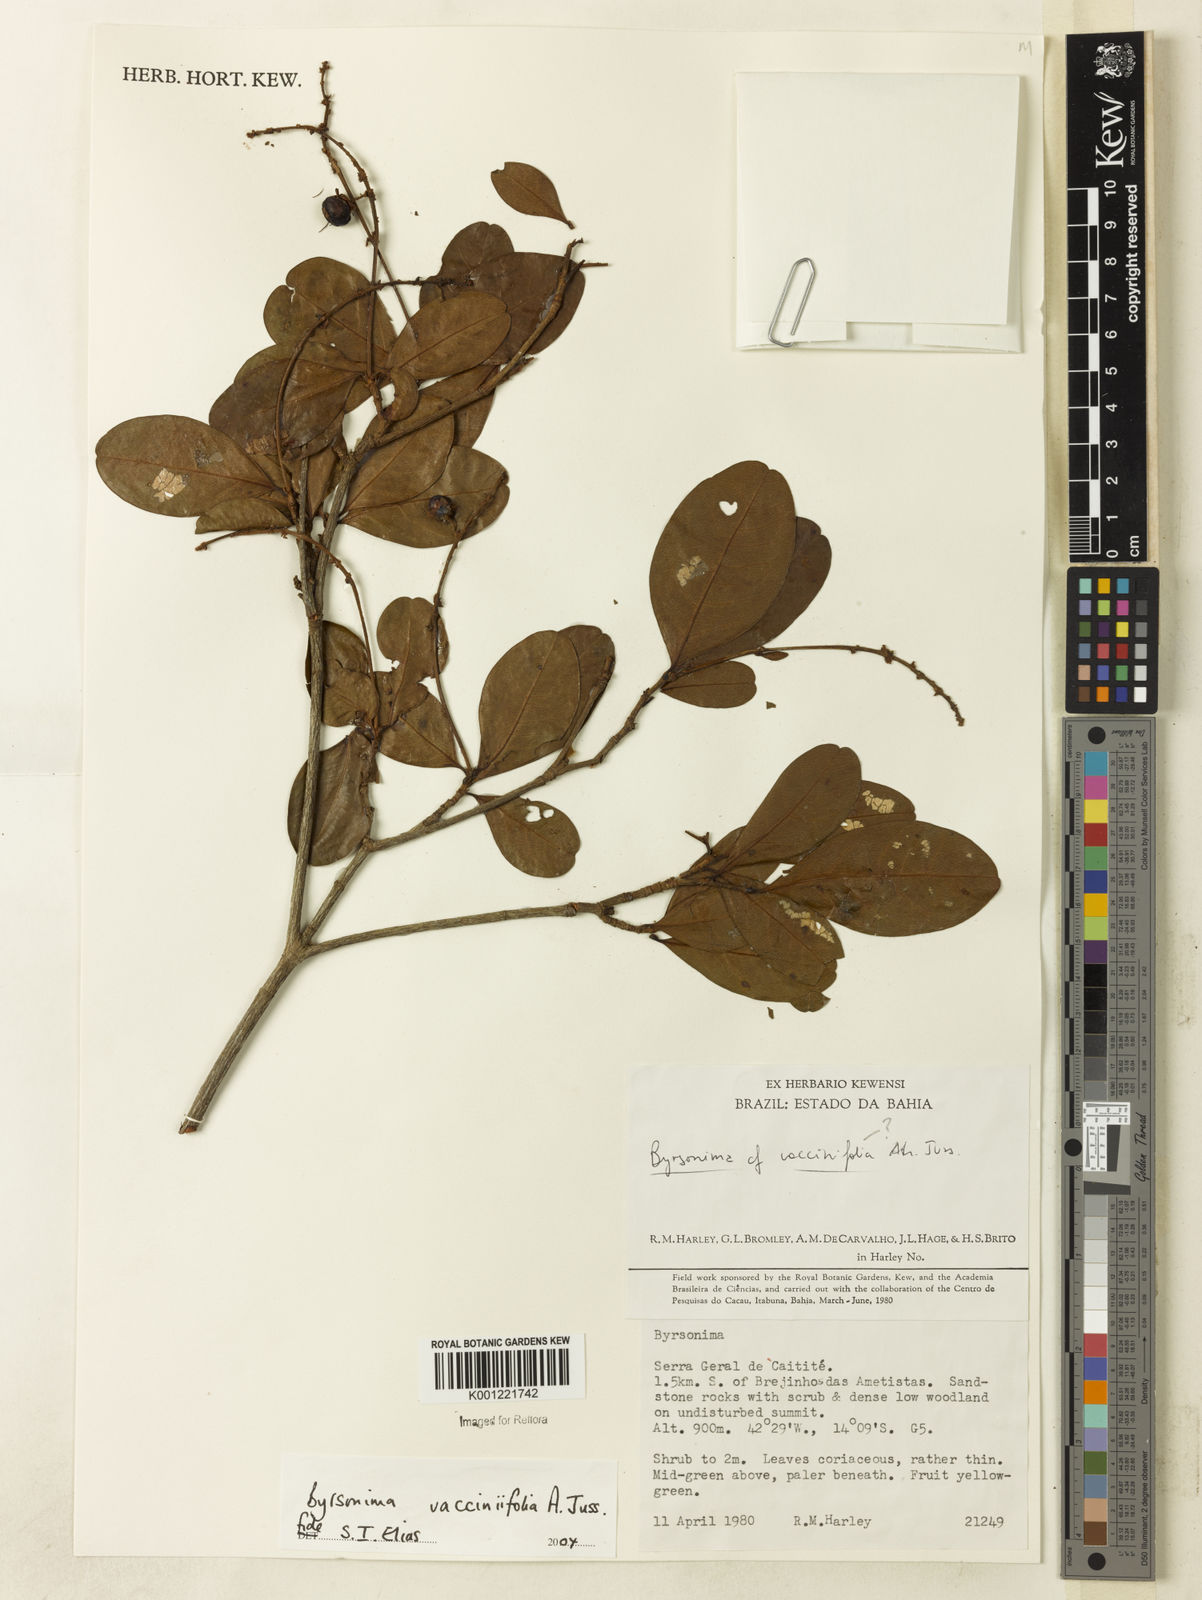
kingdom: Plantae
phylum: Tracheophyta
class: Magnoliopsida
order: Malpighiales
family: Malpighiaceae
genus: Byrsonima
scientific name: Byrsonima vacciniifolia
